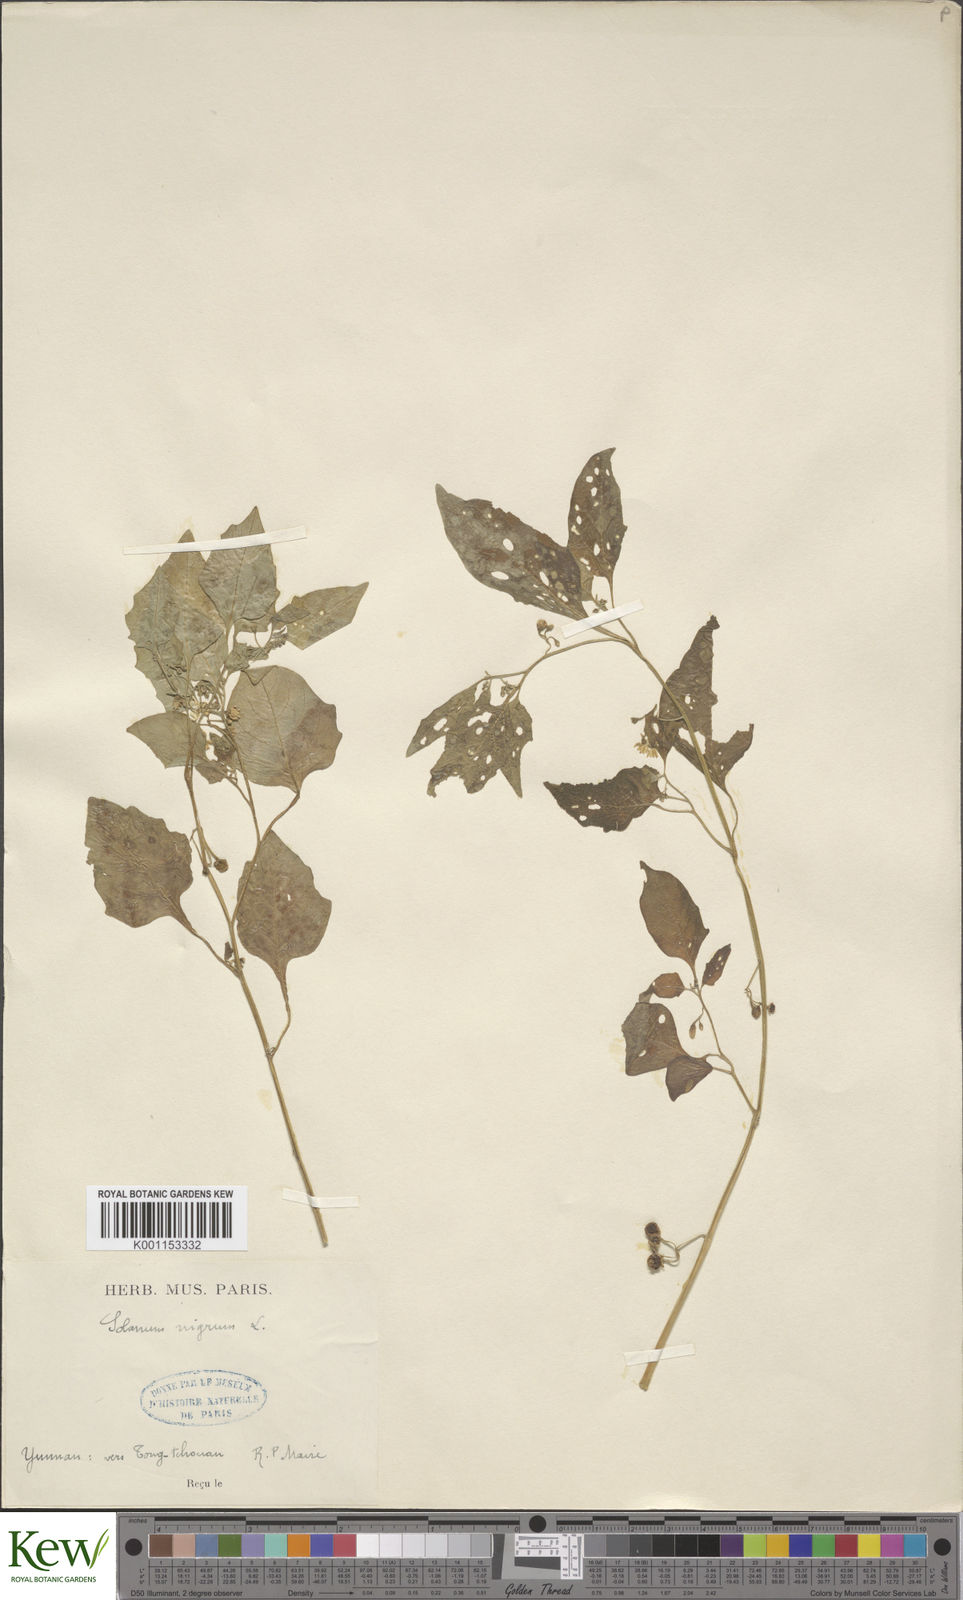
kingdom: Plantae
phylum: Tracheophyta
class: Magnoliopsida
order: Solanales
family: Solanaceae
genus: Solanum
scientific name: Solanum americanum
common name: American black nightshade
